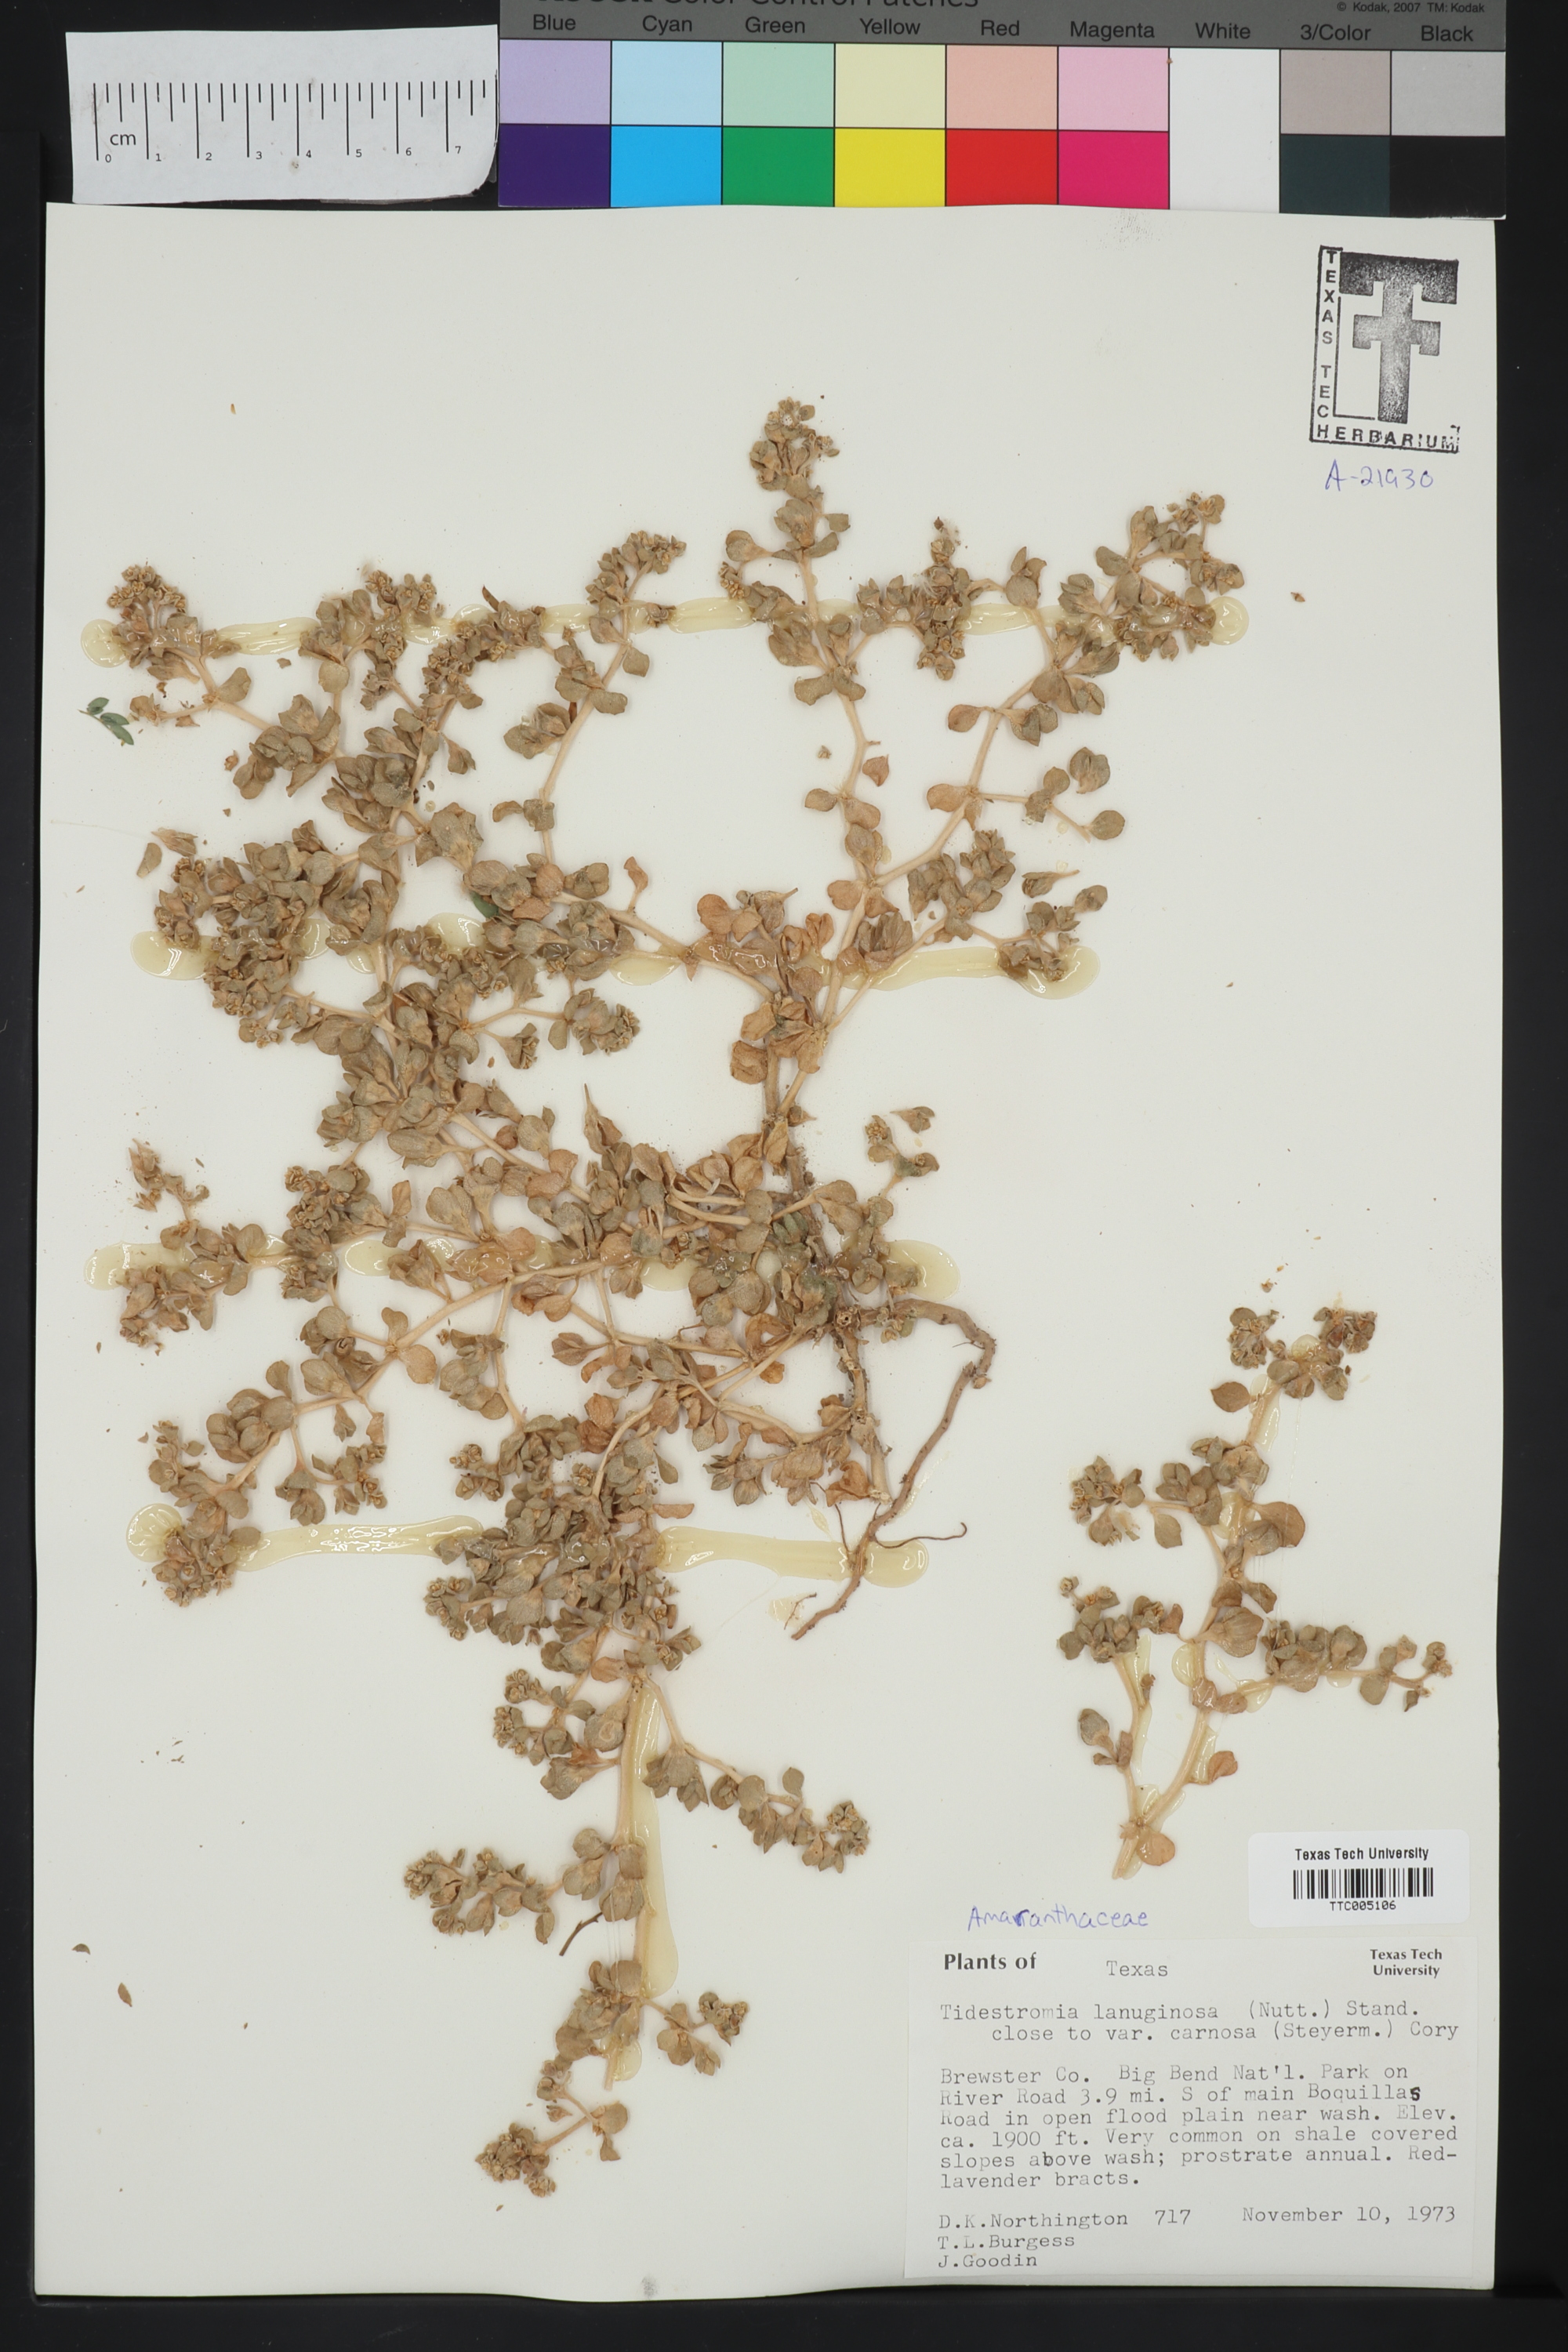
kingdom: Plantae
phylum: Tracheophyta
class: Magnoliopsida
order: Caryophyllales
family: Amaranthaceae
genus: Tidestromia
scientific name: Tidestromia carnosa
